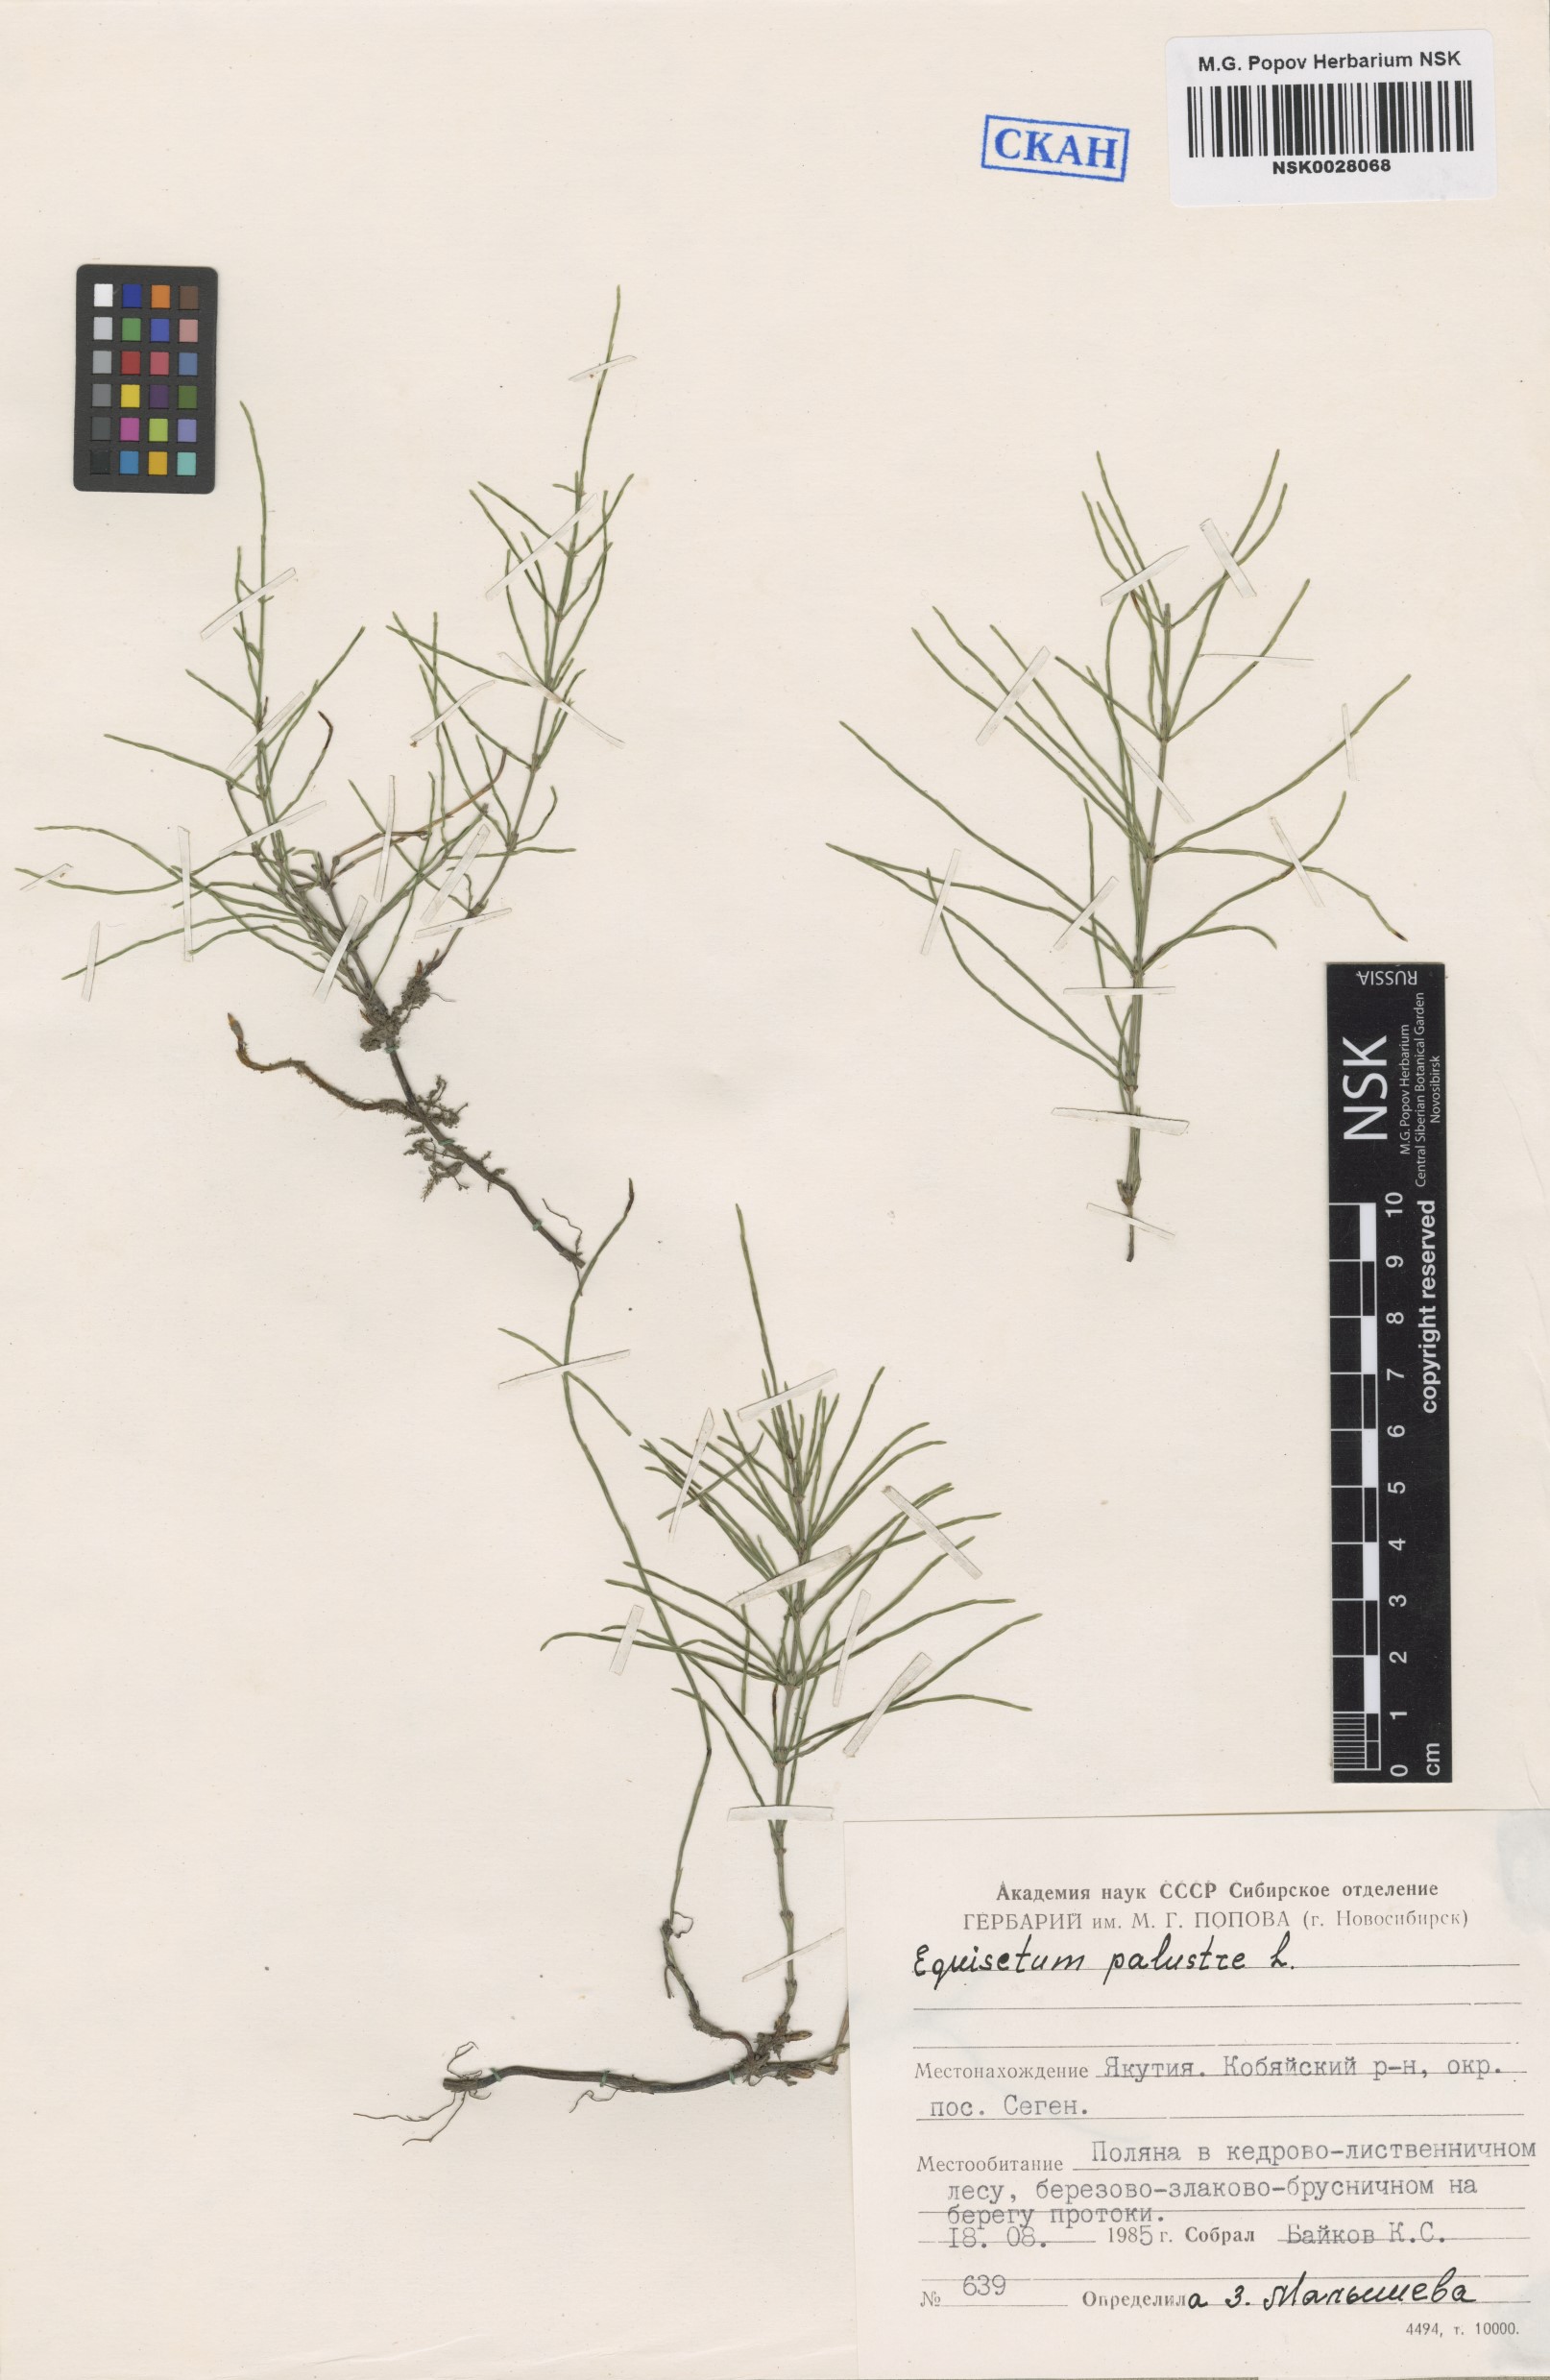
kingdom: Plantae
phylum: Tracheophyta
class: Polypodiopsida
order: Equisetales
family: Equisetaceae
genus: Equisetum
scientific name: Equisetum palustre
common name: Marsh horsetail
